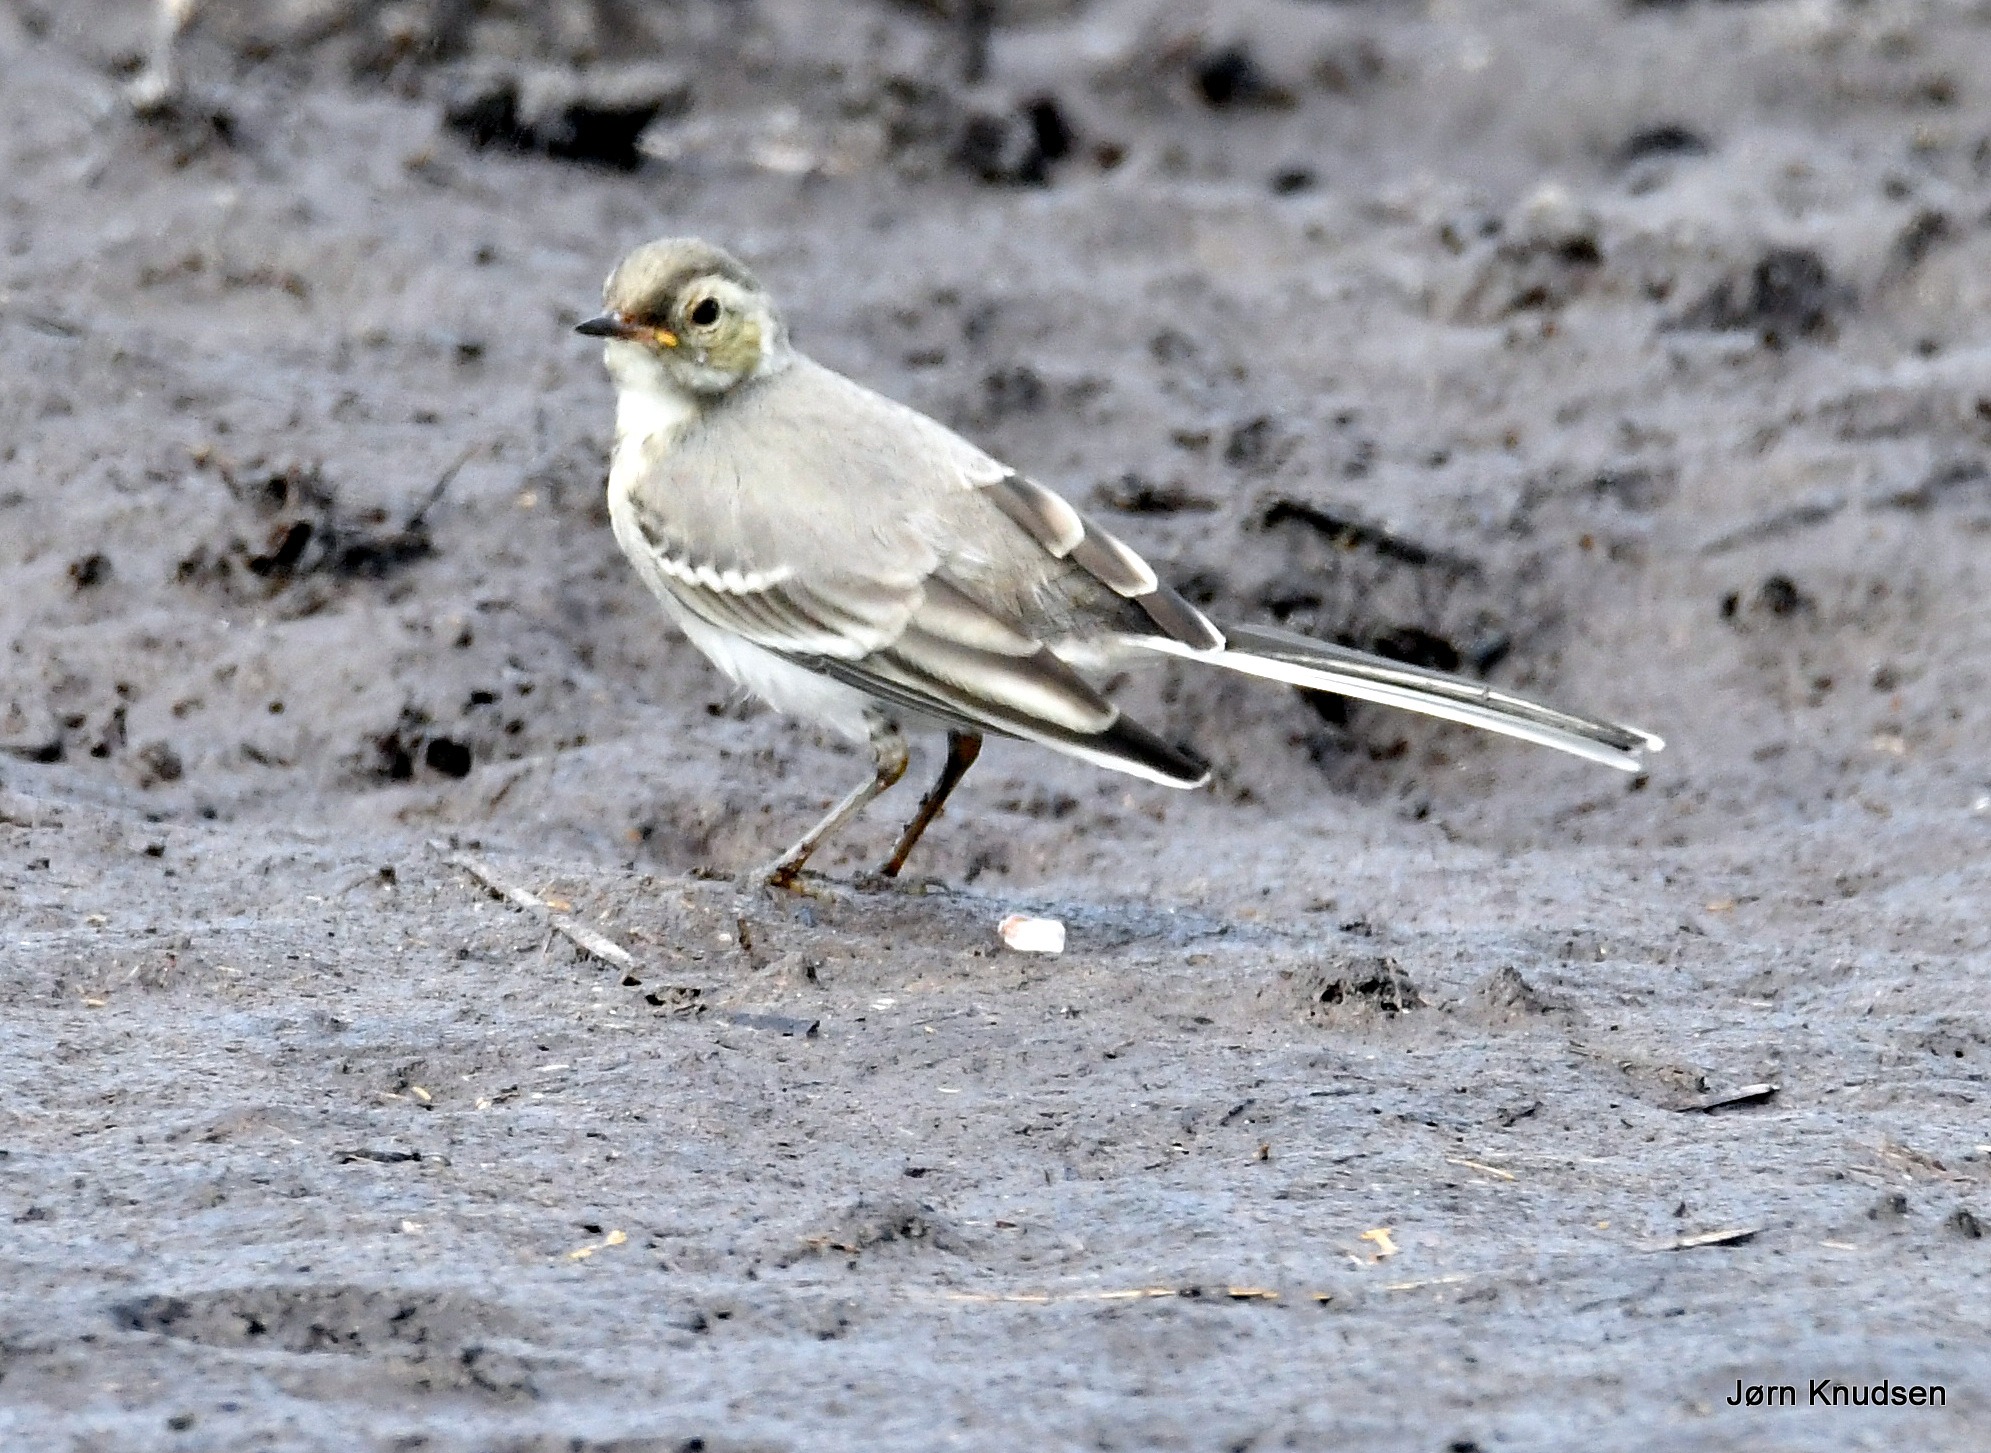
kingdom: Animalia
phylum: Chordata
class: Aves
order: Passeriformes
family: Motacillidae
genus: Motacilla
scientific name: Motacilla alba
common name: Hvid vipstjert
